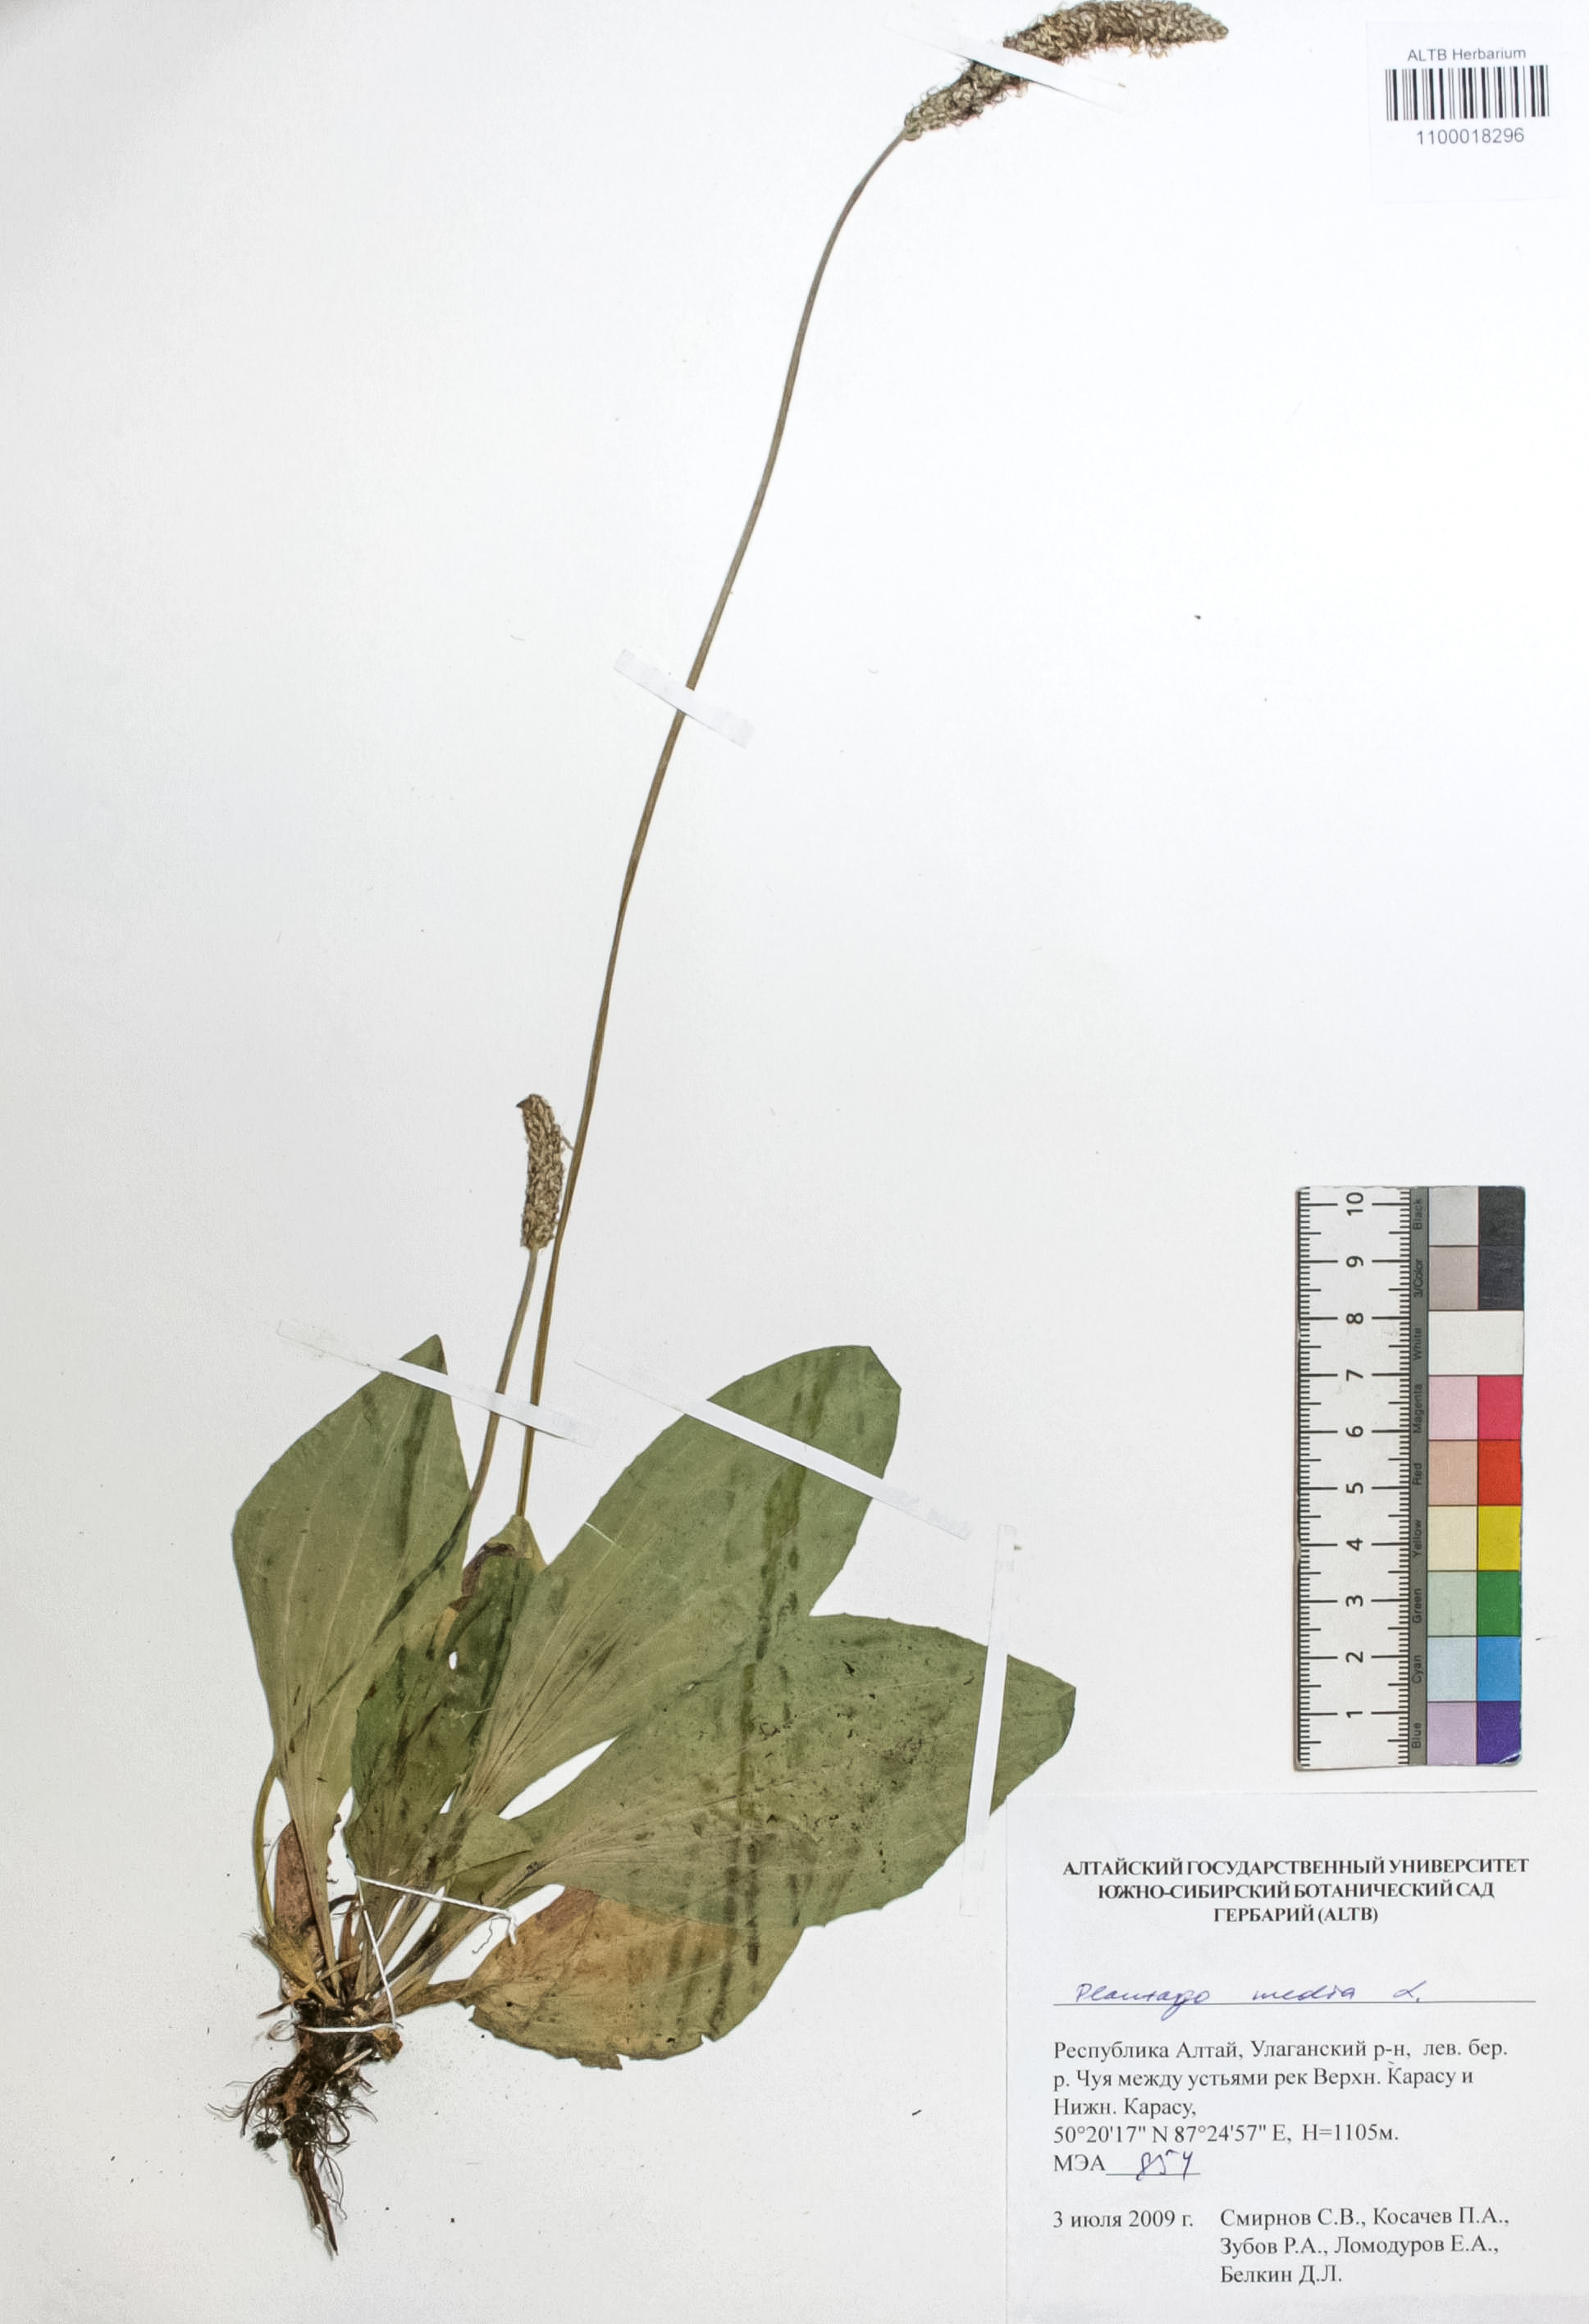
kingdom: Plantae
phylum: Tracheophyta
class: Magnoliopsida
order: Lamiales
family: Plantaginaceae
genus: Plantago
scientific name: Plantago media
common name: Hoary plantain
